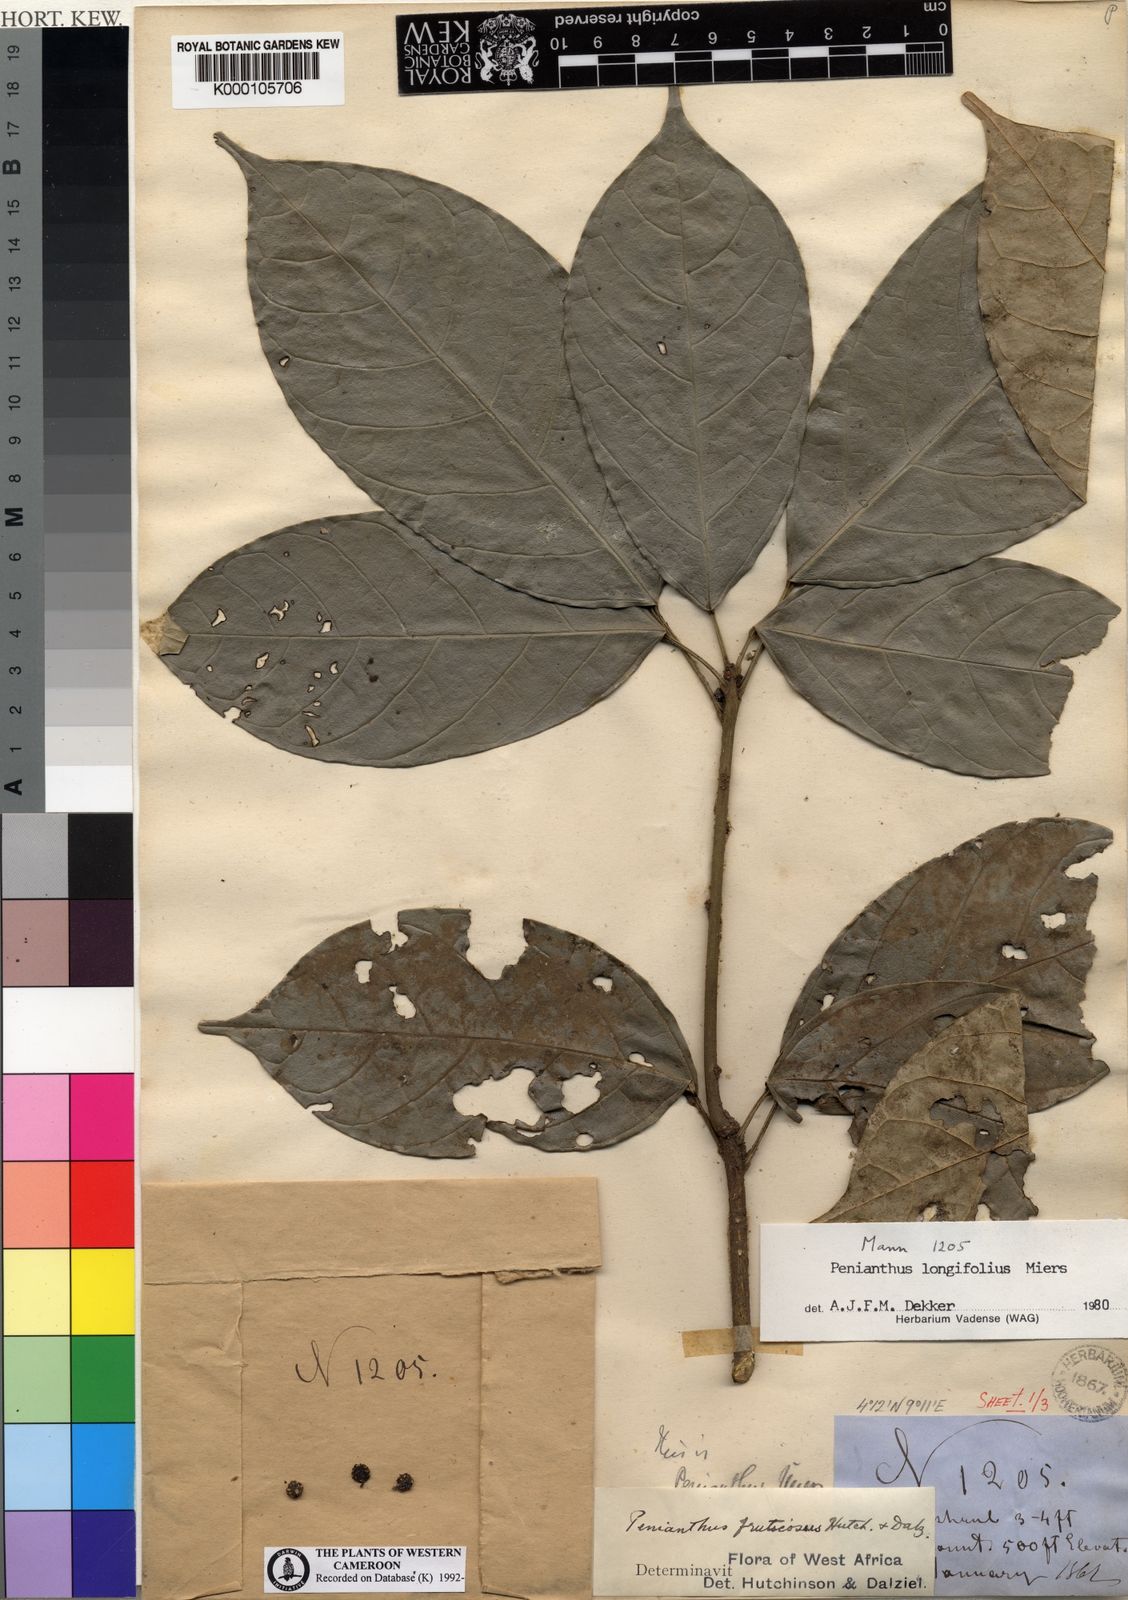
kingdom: Plantae
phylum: Tracheophyta
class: Magnoliopsida
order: Ranunculales
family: Menispermaceae
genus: Penianthus
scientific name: Penianthus longifolius
